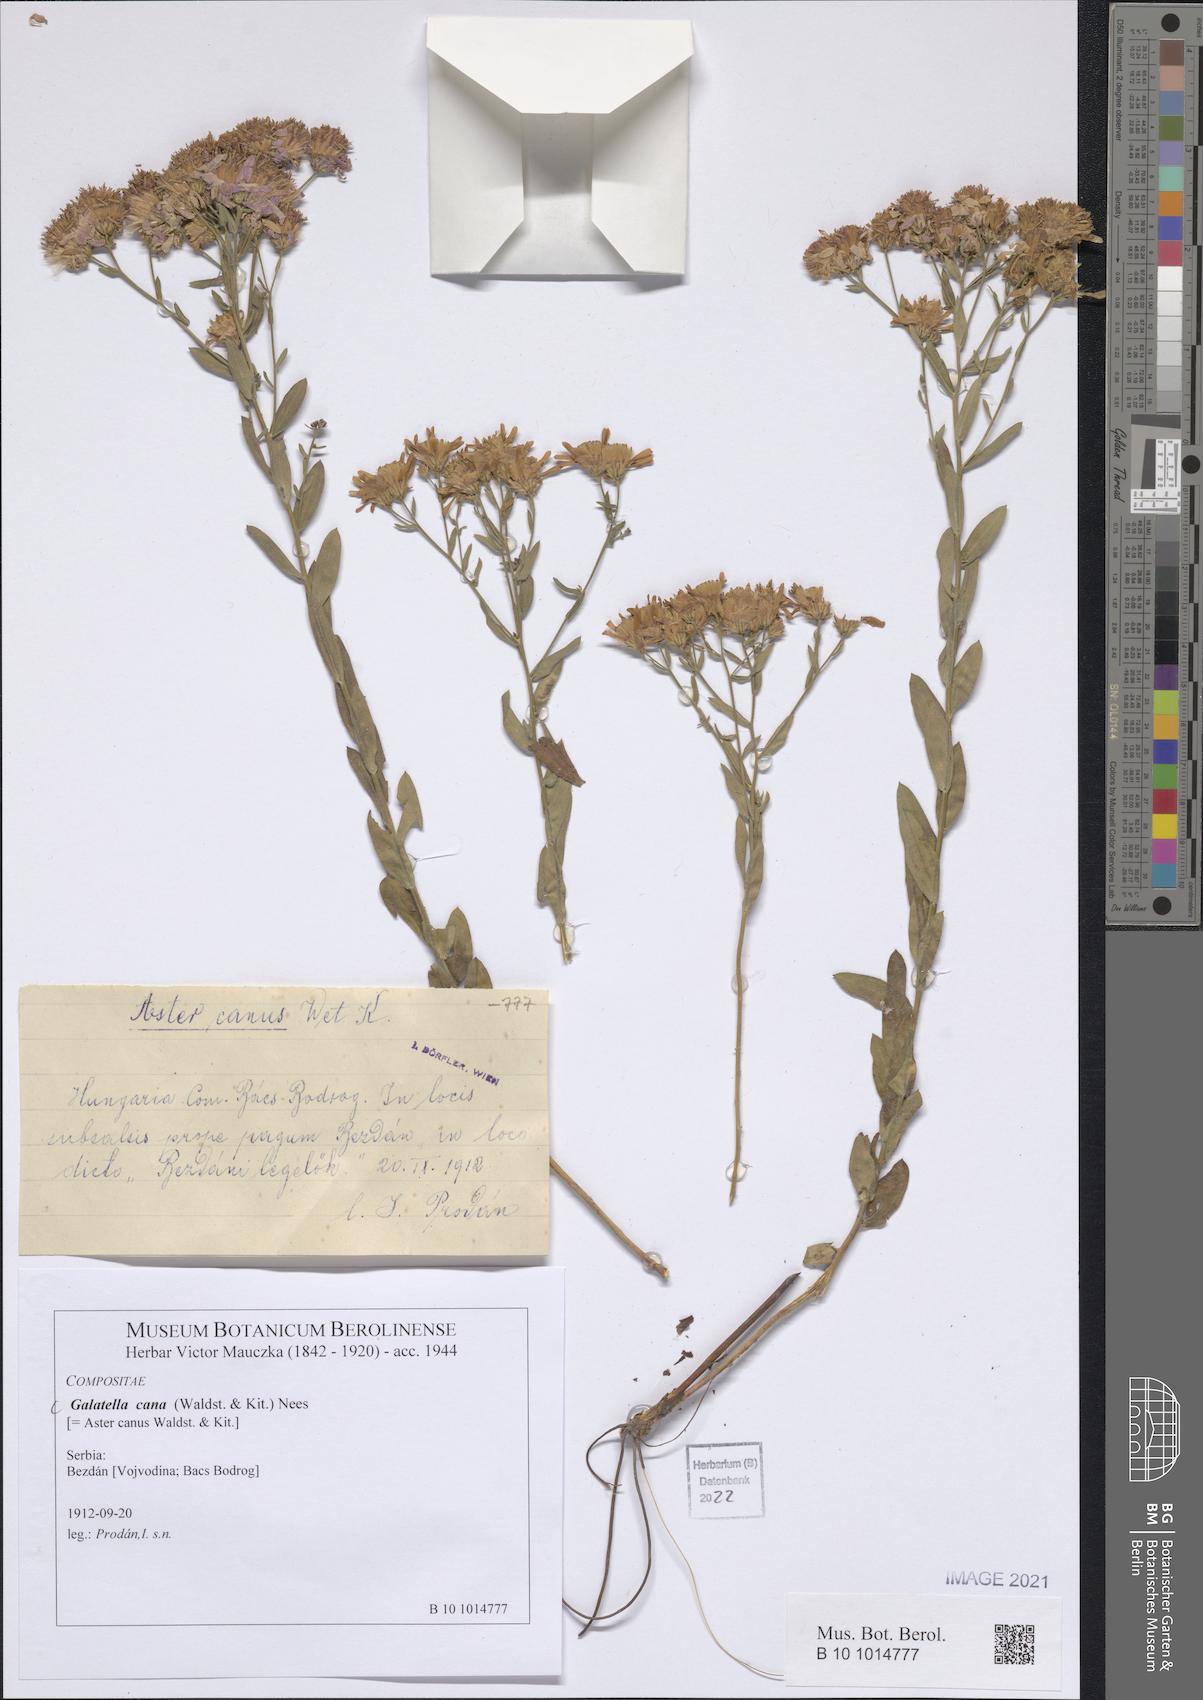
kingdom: Plantae
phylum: Tracheophyta
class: Magnoliopsida
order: Asterales
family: Asteraceae
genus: Galatella
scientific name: Galatella cana
